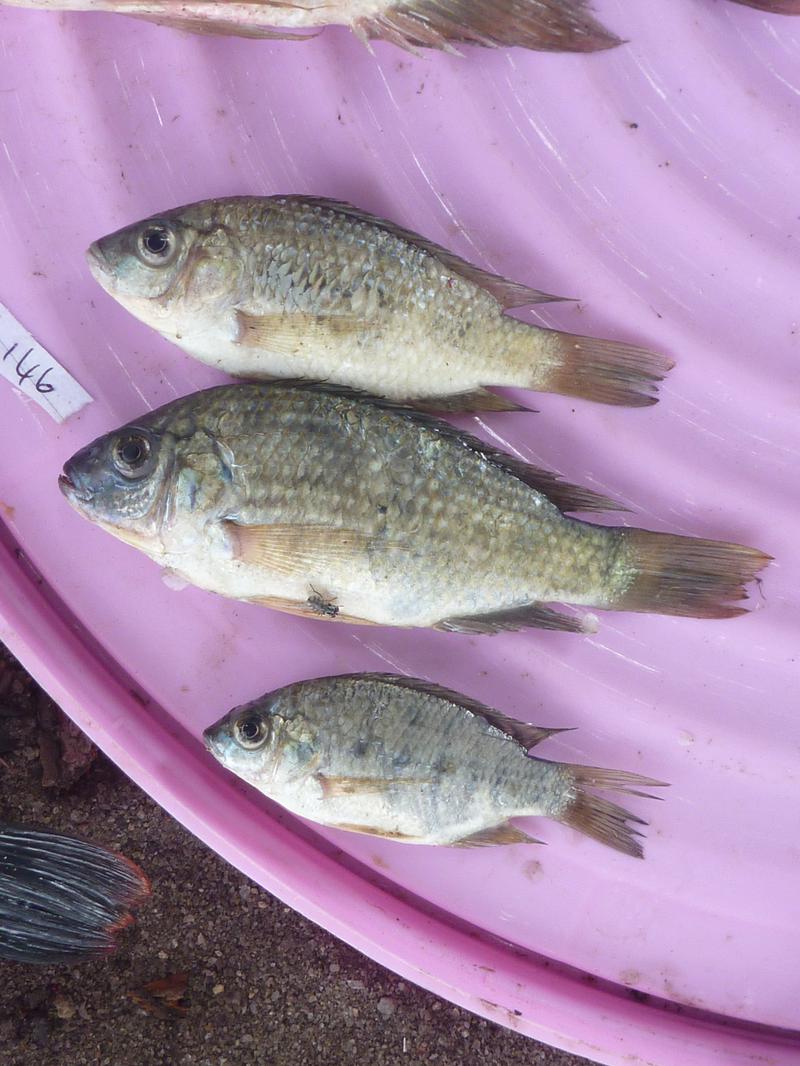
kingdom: Animalia
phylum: Chordata
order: Perciformes
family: Cichlidae
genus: Oreochromis
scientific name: Oreochromis shiranus
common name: Chilwa tilapia
